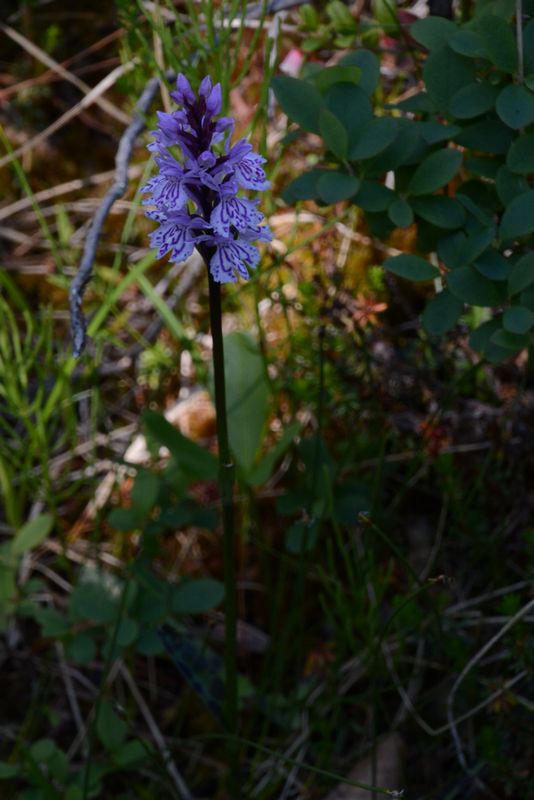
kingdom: Plantae
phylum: Tracheophyta
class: Liliopsida
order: Asparagales
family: Orchidaceae
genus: Dactylorhiza
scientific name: Dactylorhiza maculata
